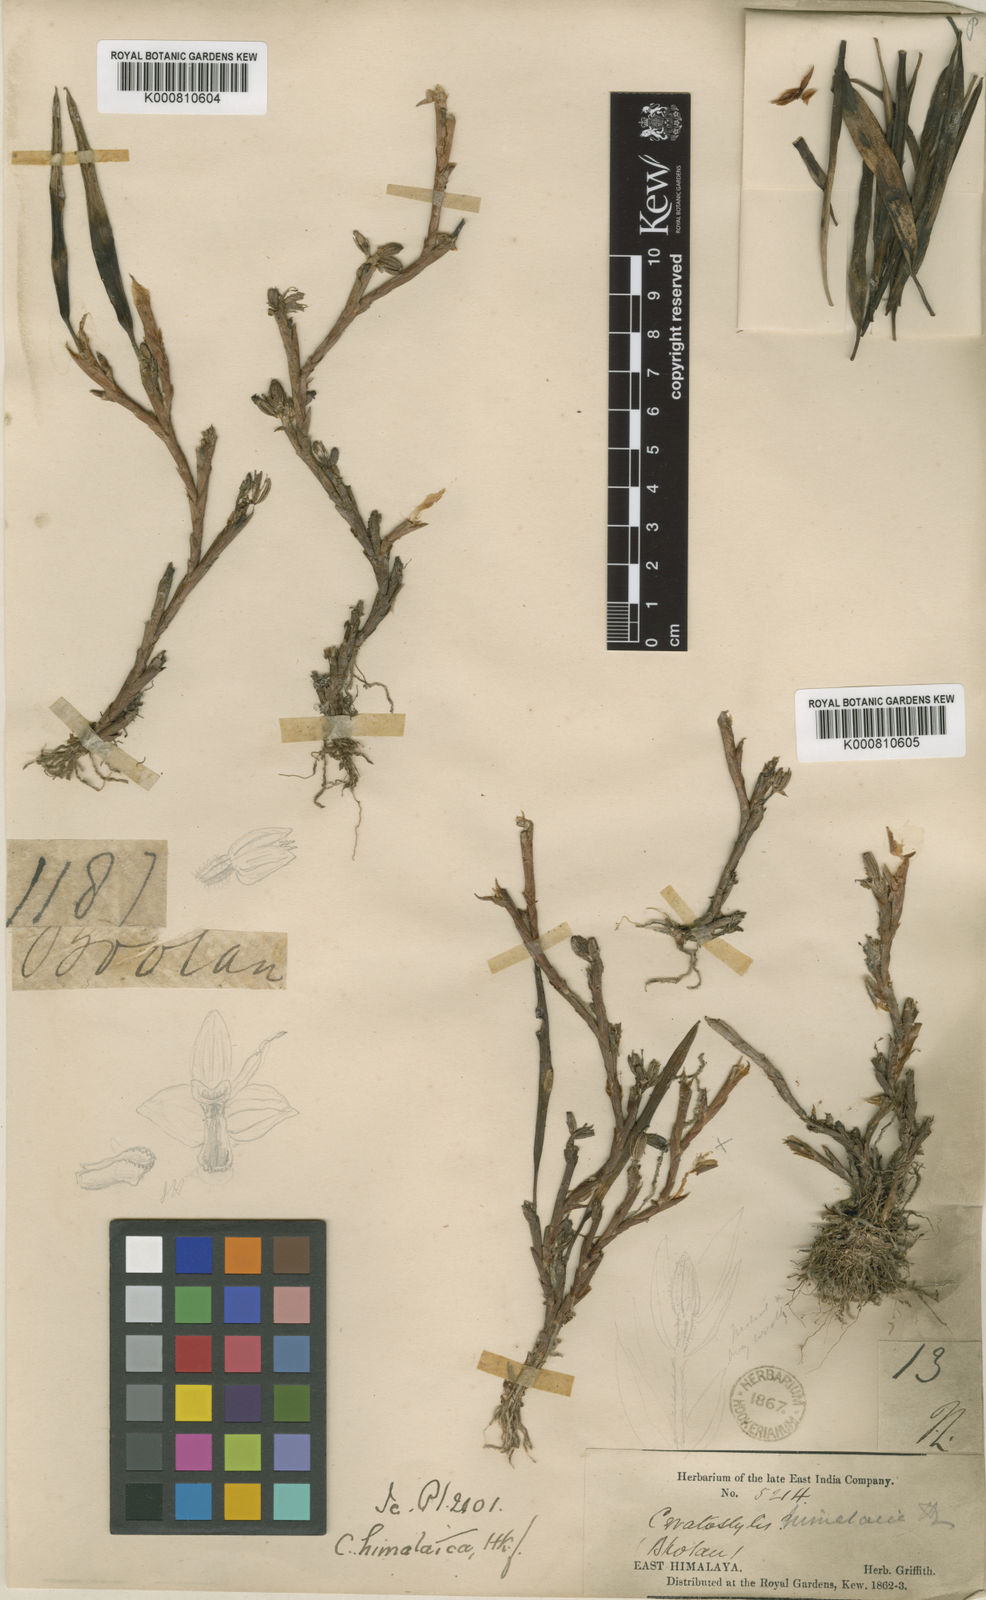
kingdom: Plantae
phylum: Tracheophyta
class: Liliopsida
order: Asparagales
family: Orchidaceae
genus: Ceratostylis
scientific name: Ceratostylis himalaica
